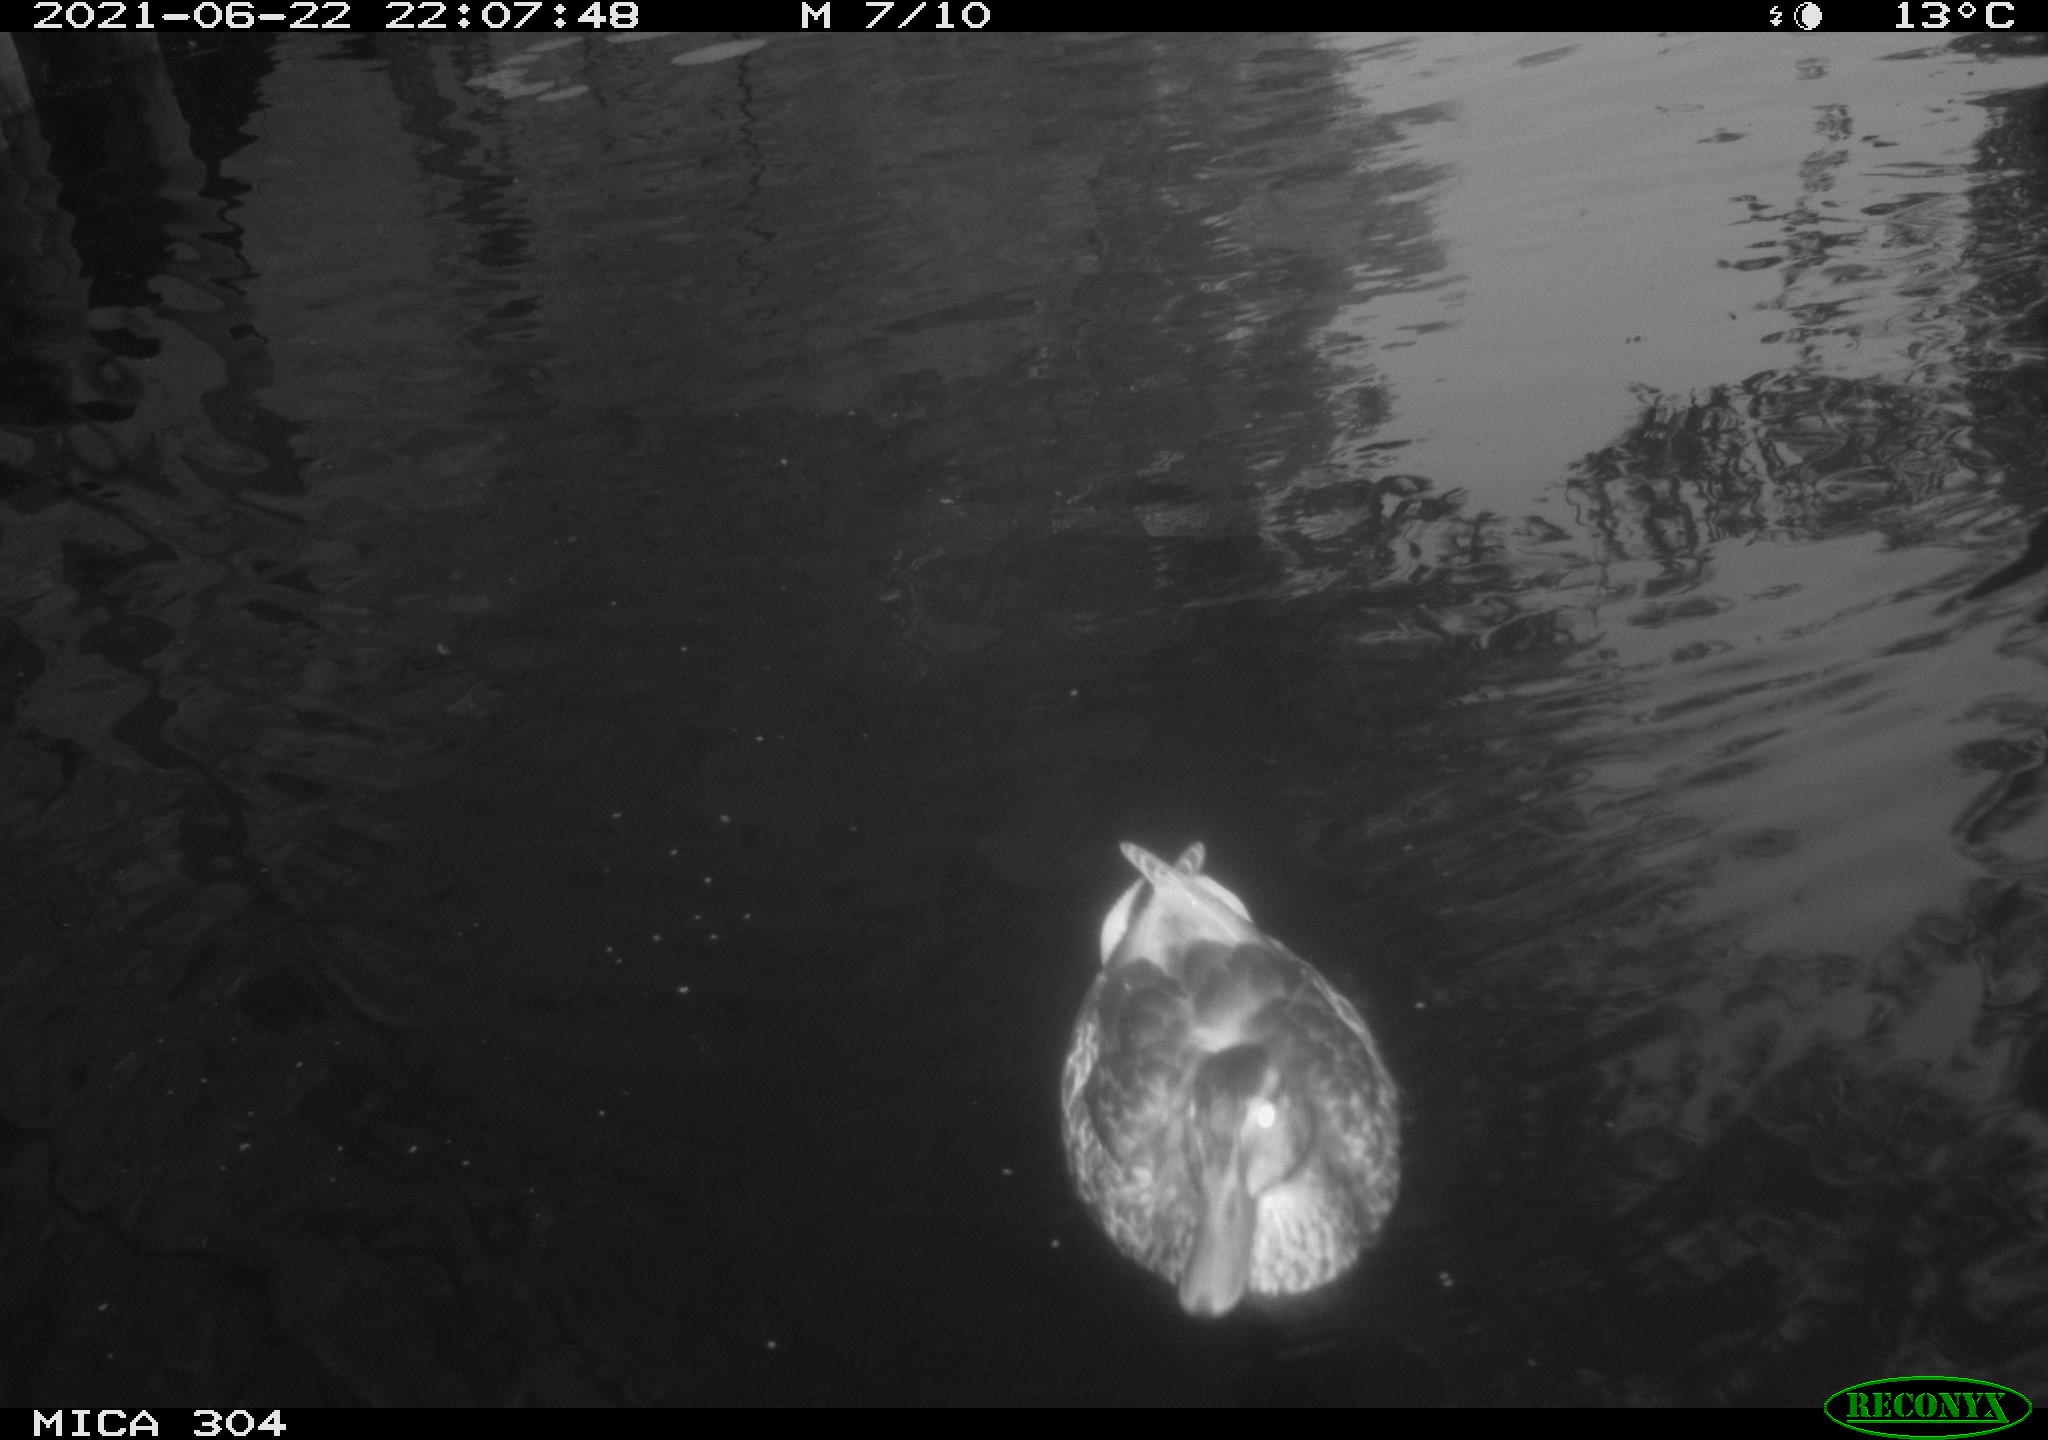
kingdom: Animalia
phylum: Chordata
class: Aves
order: Anseriformes
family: Anatidae
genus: Anas
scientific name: Anas platyrhynchos
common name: Mallard
